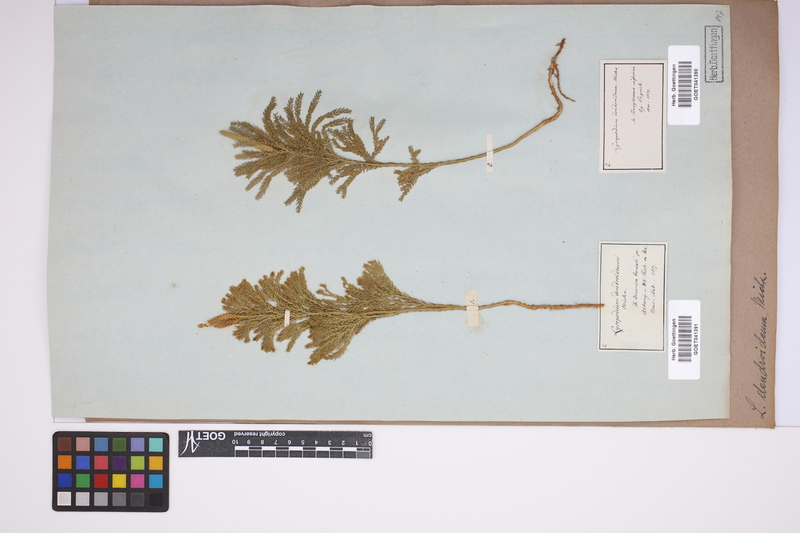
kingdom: Plantae
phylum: Tracheophyta
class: Lycopodiopsida
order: Lycopodiales
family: Lycopodiaceae
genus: Dendrolycopodium
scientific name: Dendrolycopodium dendroideum
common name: Northern tree-clubmoss
